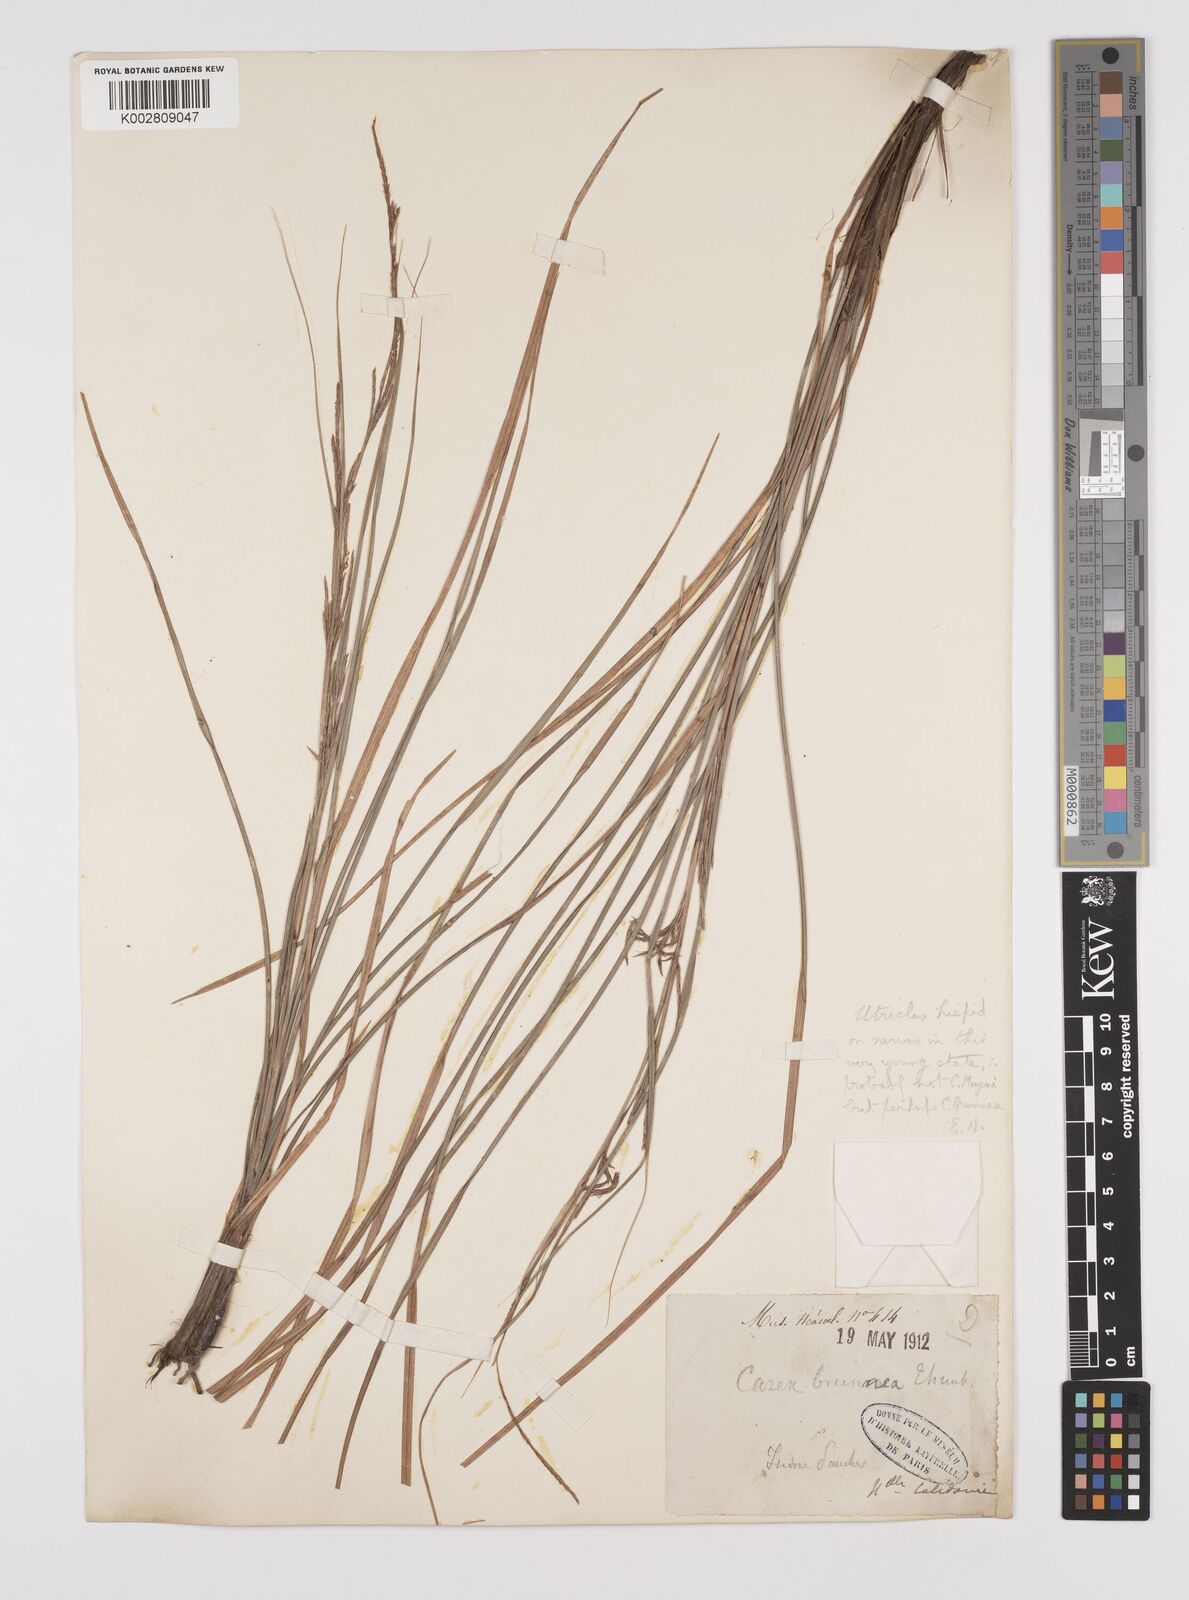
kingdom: Plantae
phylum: Tracheophyta
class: Liliopsida
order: Poales
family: Cyperaceae
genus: Carex
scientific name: Carex brunnea
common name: Greater brown sedge
